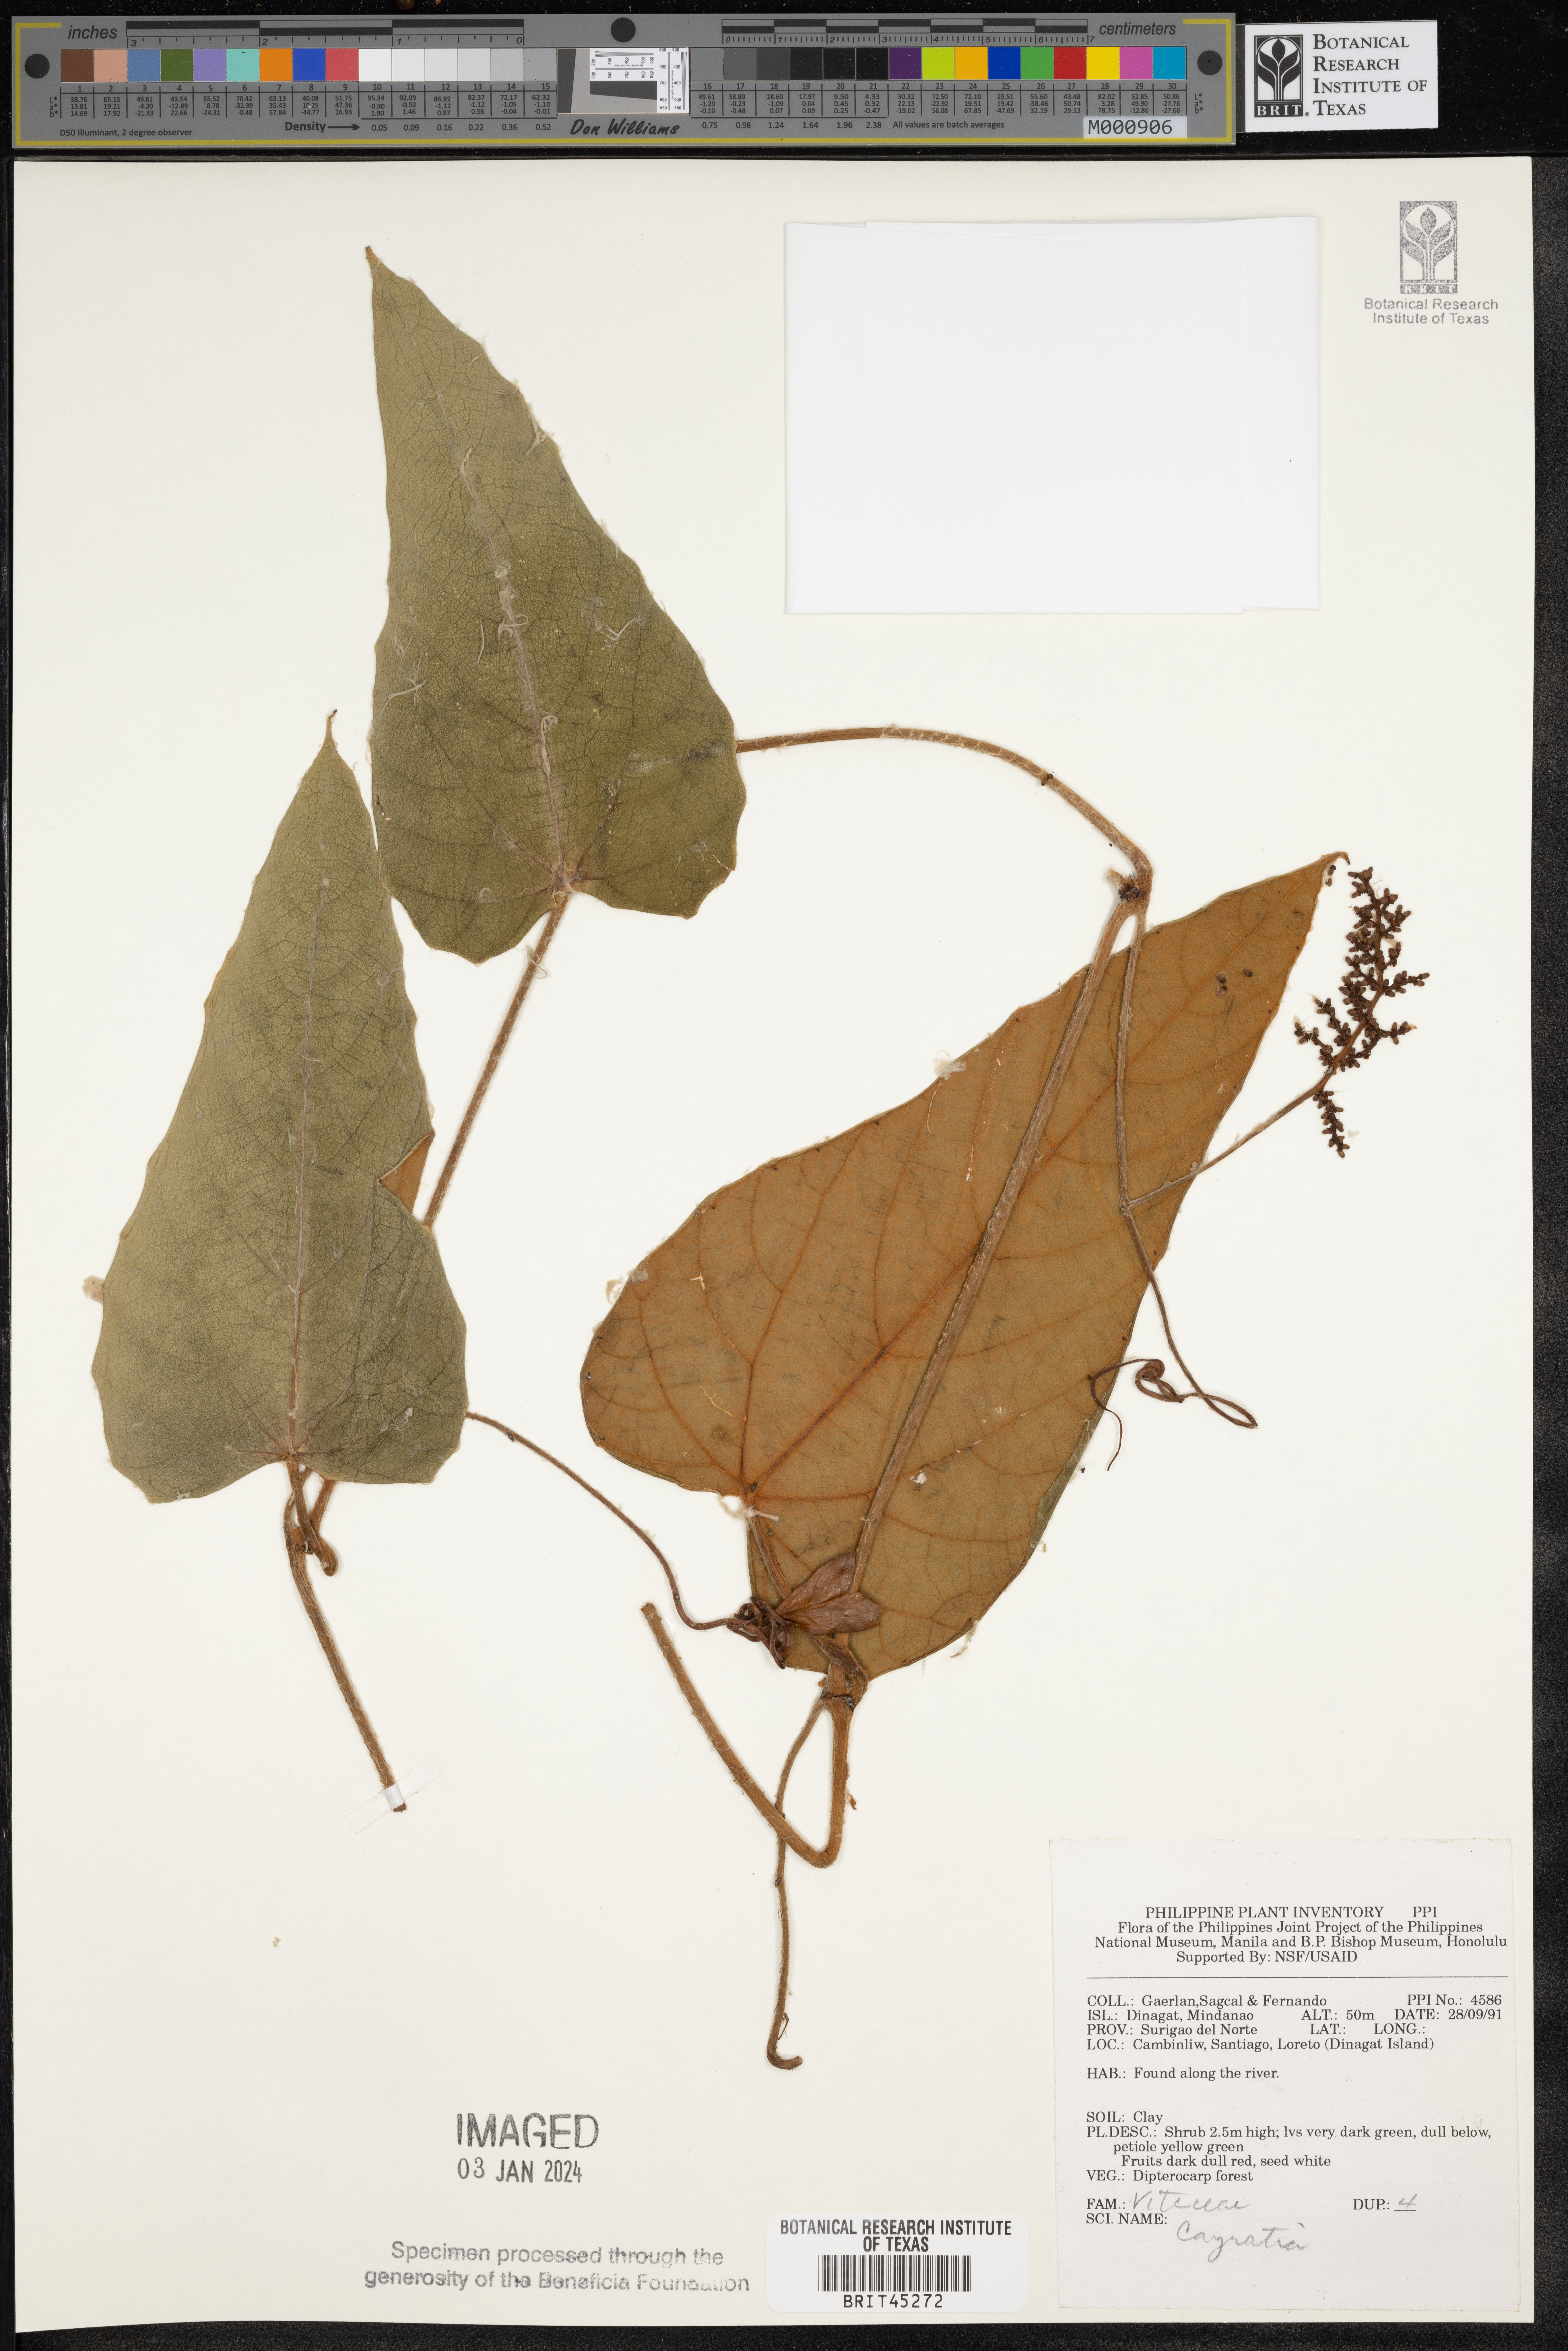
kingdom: Plantae
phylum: Tracheophyta
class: Magnoliopsida
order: Vitales
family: Vitaceae
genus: Cayratia
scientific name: Cayratia
